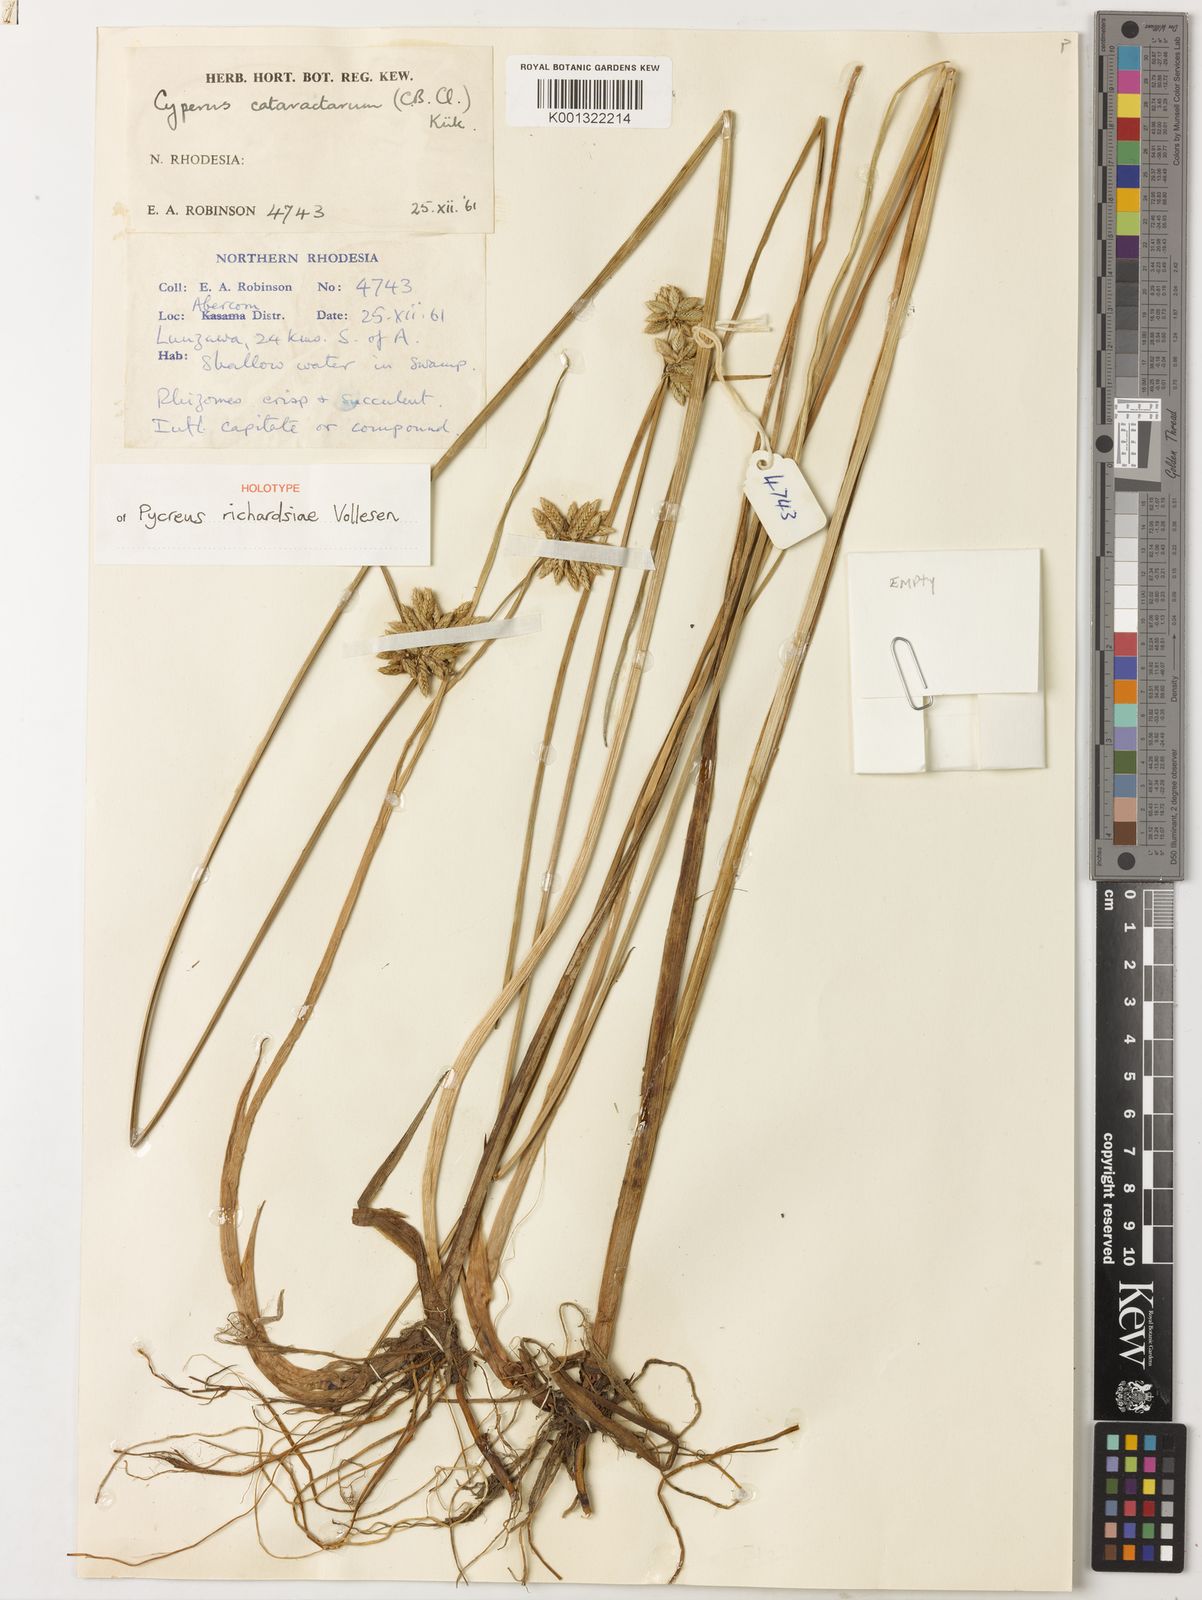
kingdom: Plantae
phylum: Tracheophyta
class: Liliopsida
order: Poales
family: Cyperaceae
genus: Cyperus
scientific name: Cyperus
